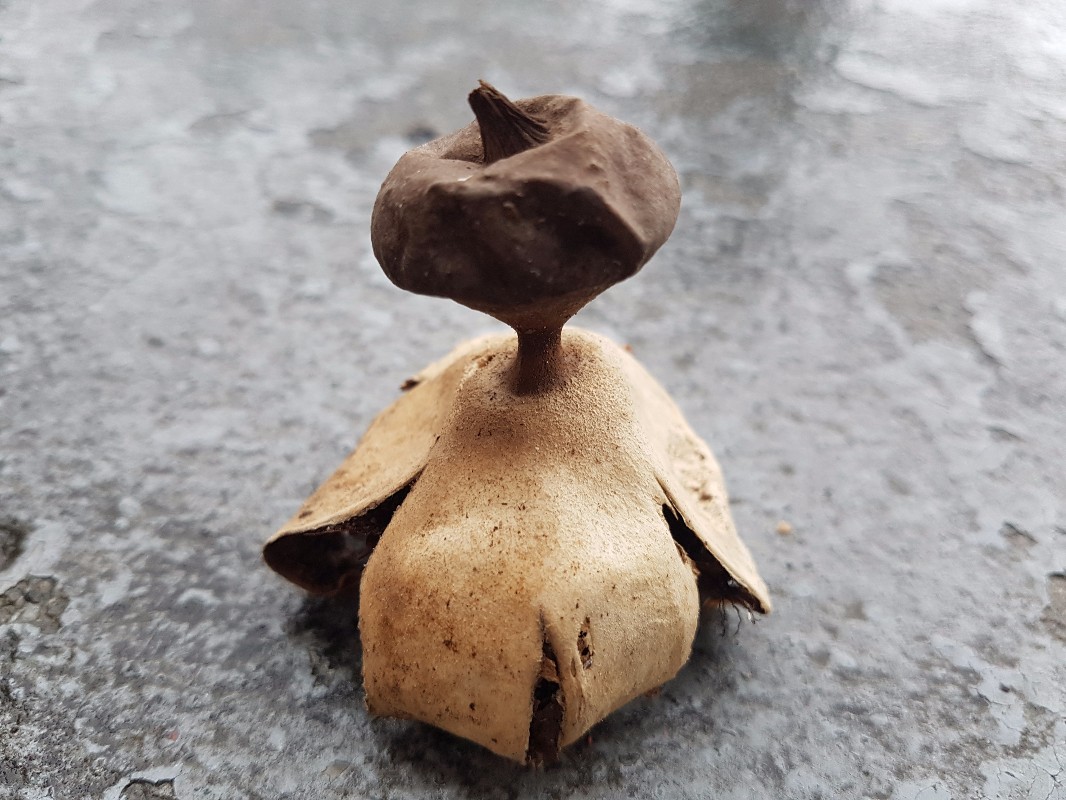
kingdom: Fungi
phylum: Basidiomycota
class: Agaricomycetes
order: Geastrales
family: Geastraceae
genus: Geastrum
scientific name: Geastrum pectinatum
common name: stilket stjernebold
